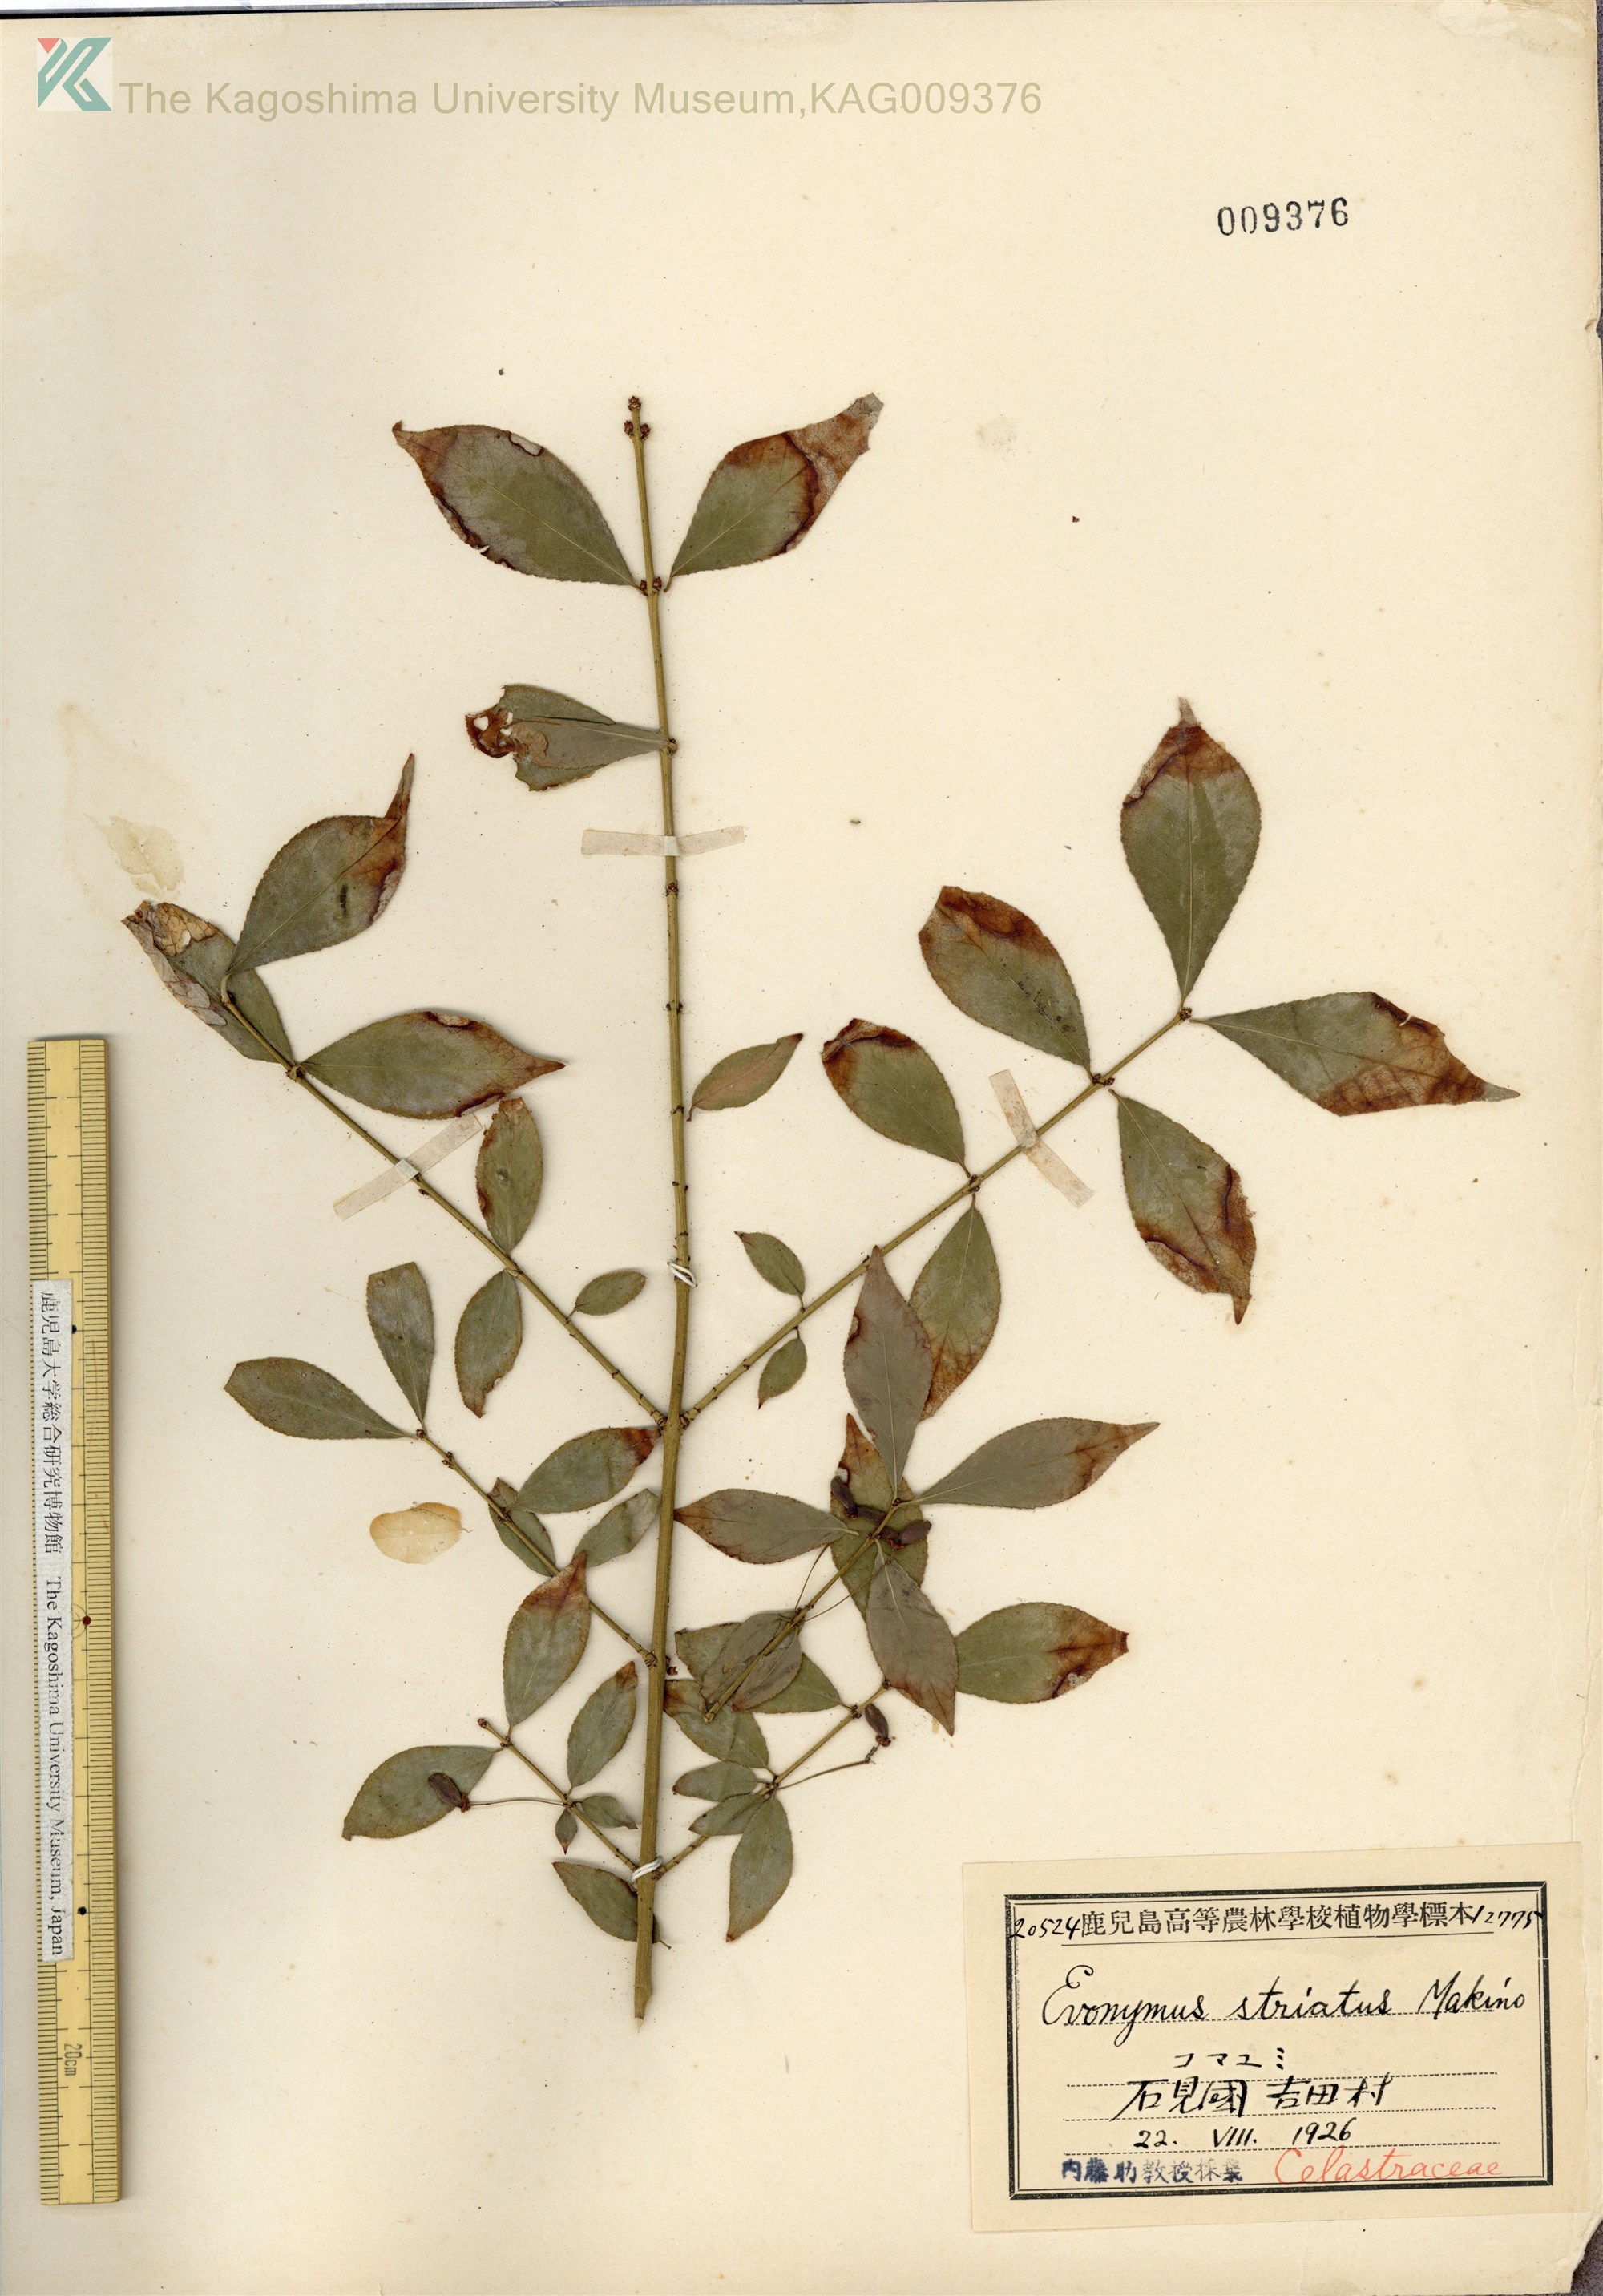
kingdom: Plantae
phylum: Tracheophyta
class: Magnoliopsida
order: Celastrales
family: Celastraceae
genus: Euonymus
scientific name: Euonymus alatus
